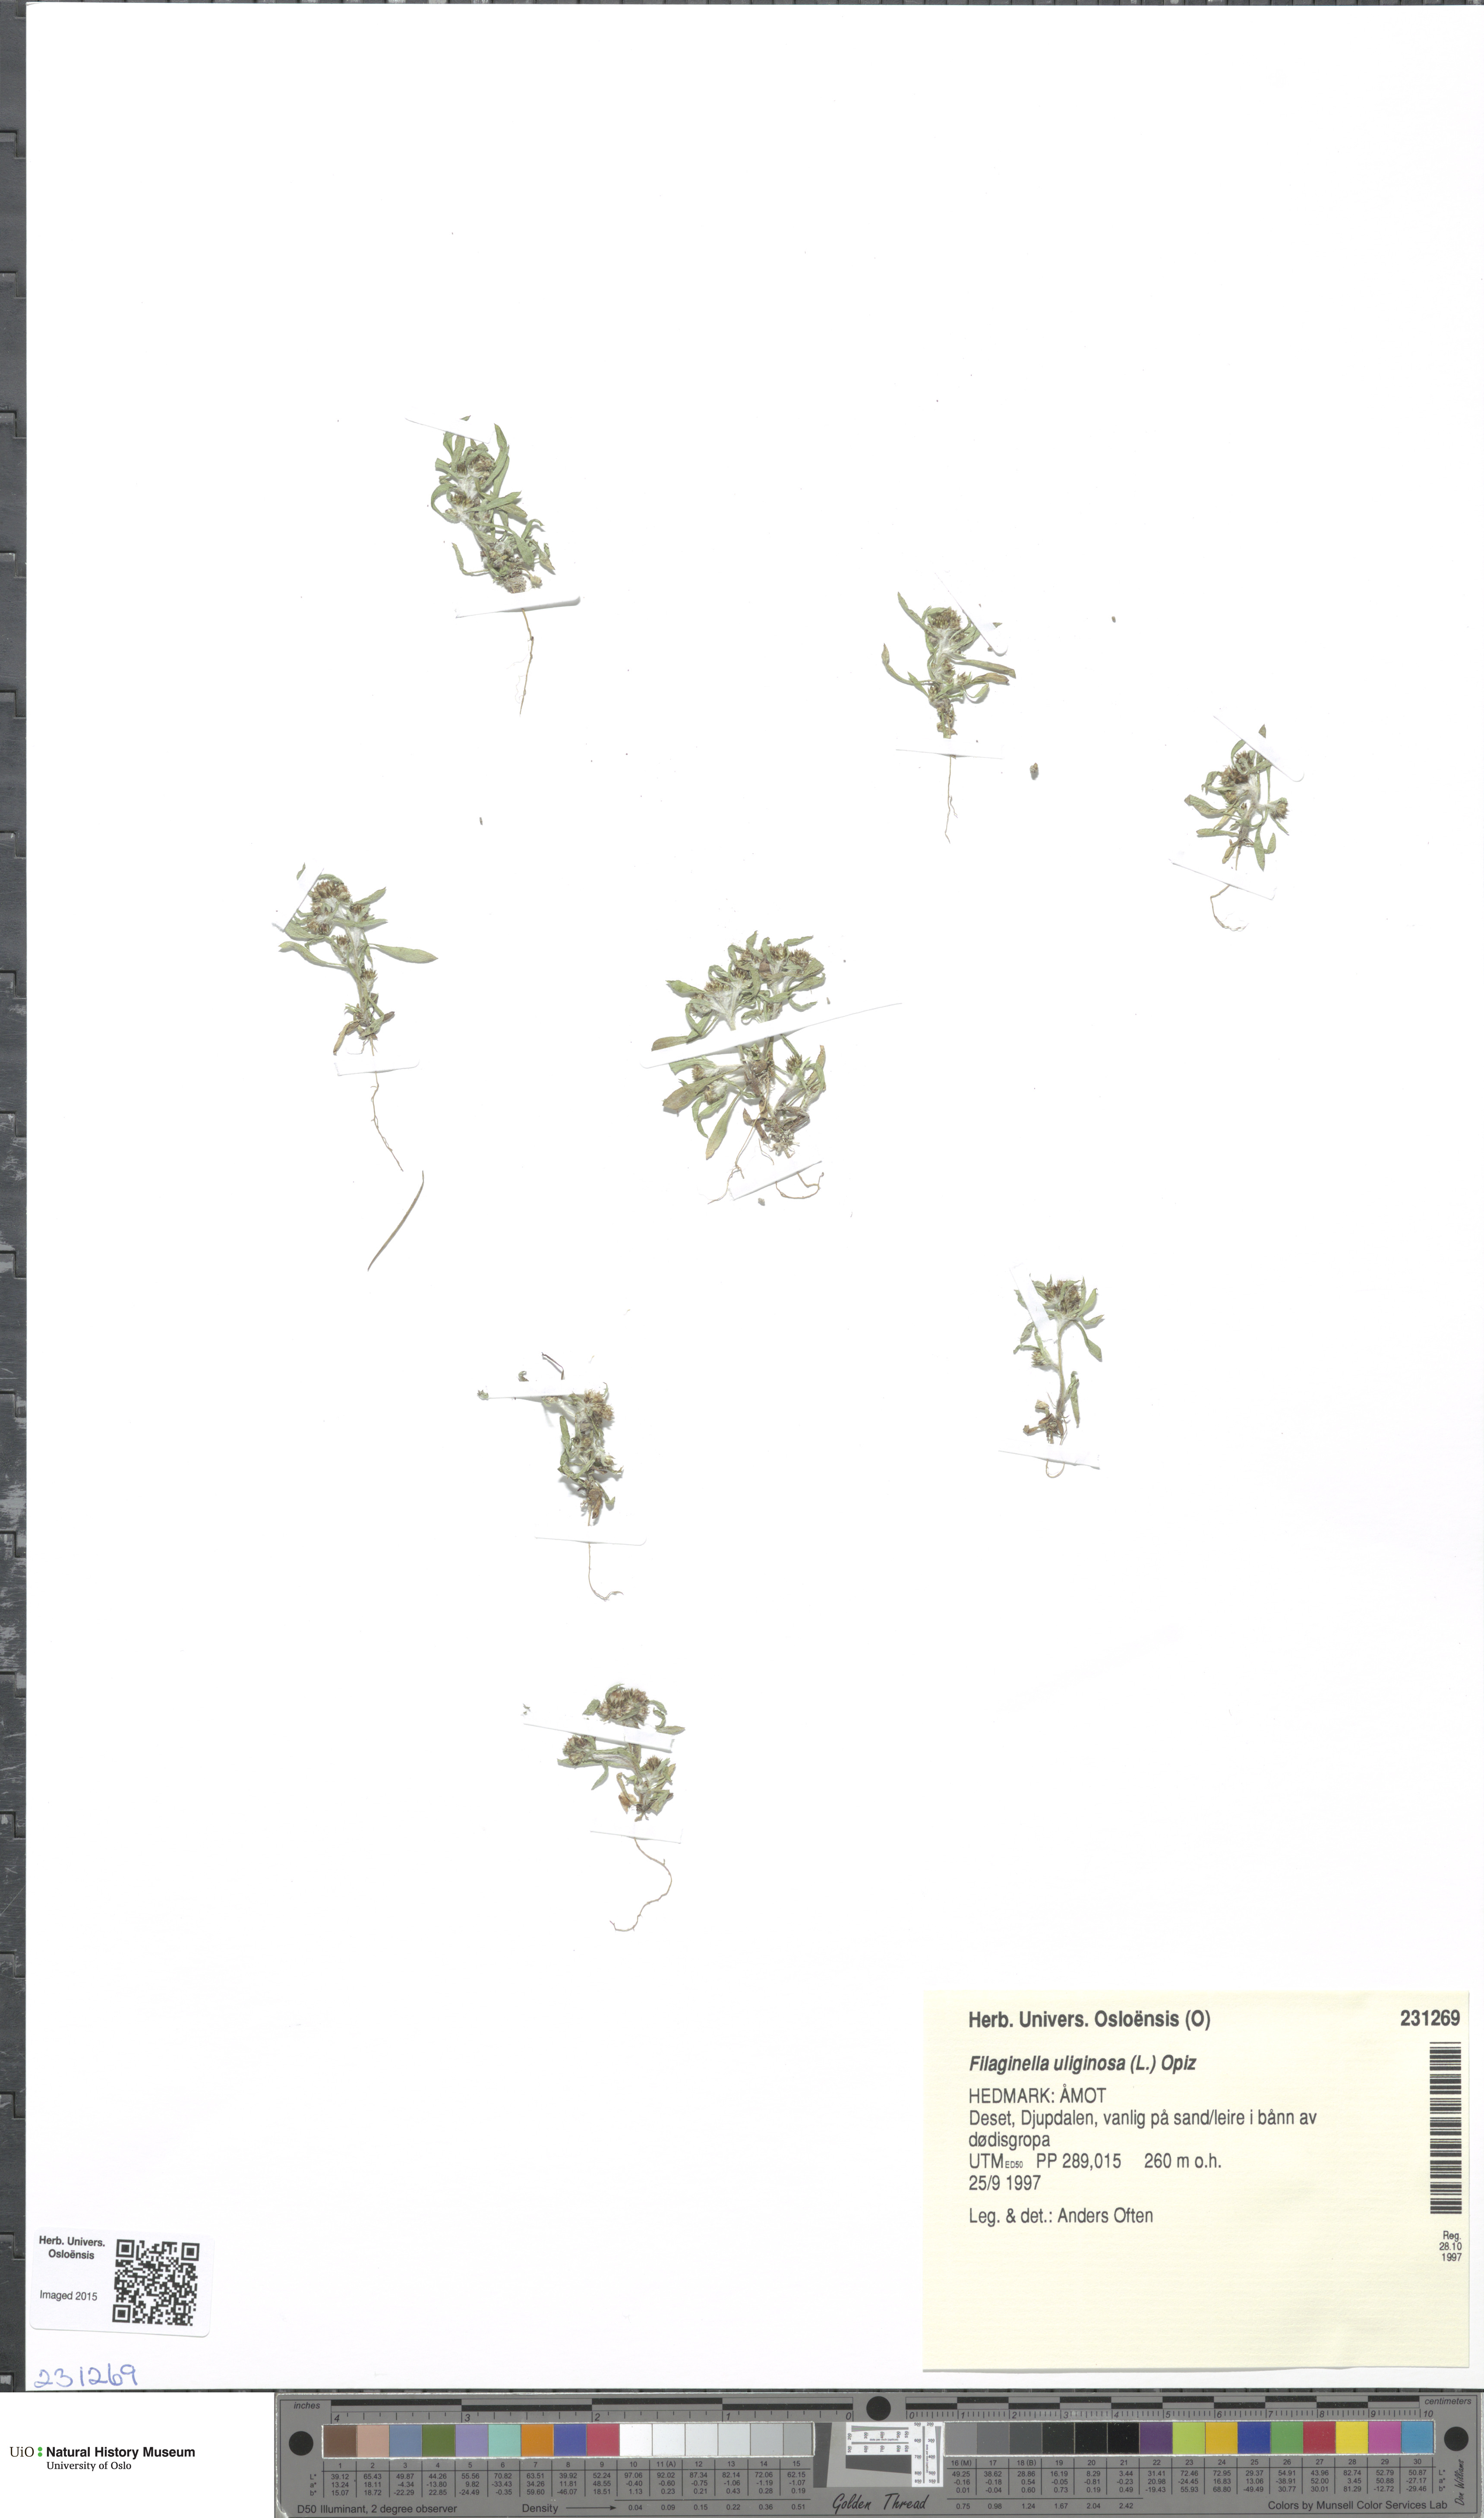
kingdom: Plantae
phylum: Tracheophyta
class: Magnoliopsida
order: Asterales
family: Asteraceae
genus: Gnaphalium
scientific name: Gnaphalium uliginosum
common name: Marsh cudweed
